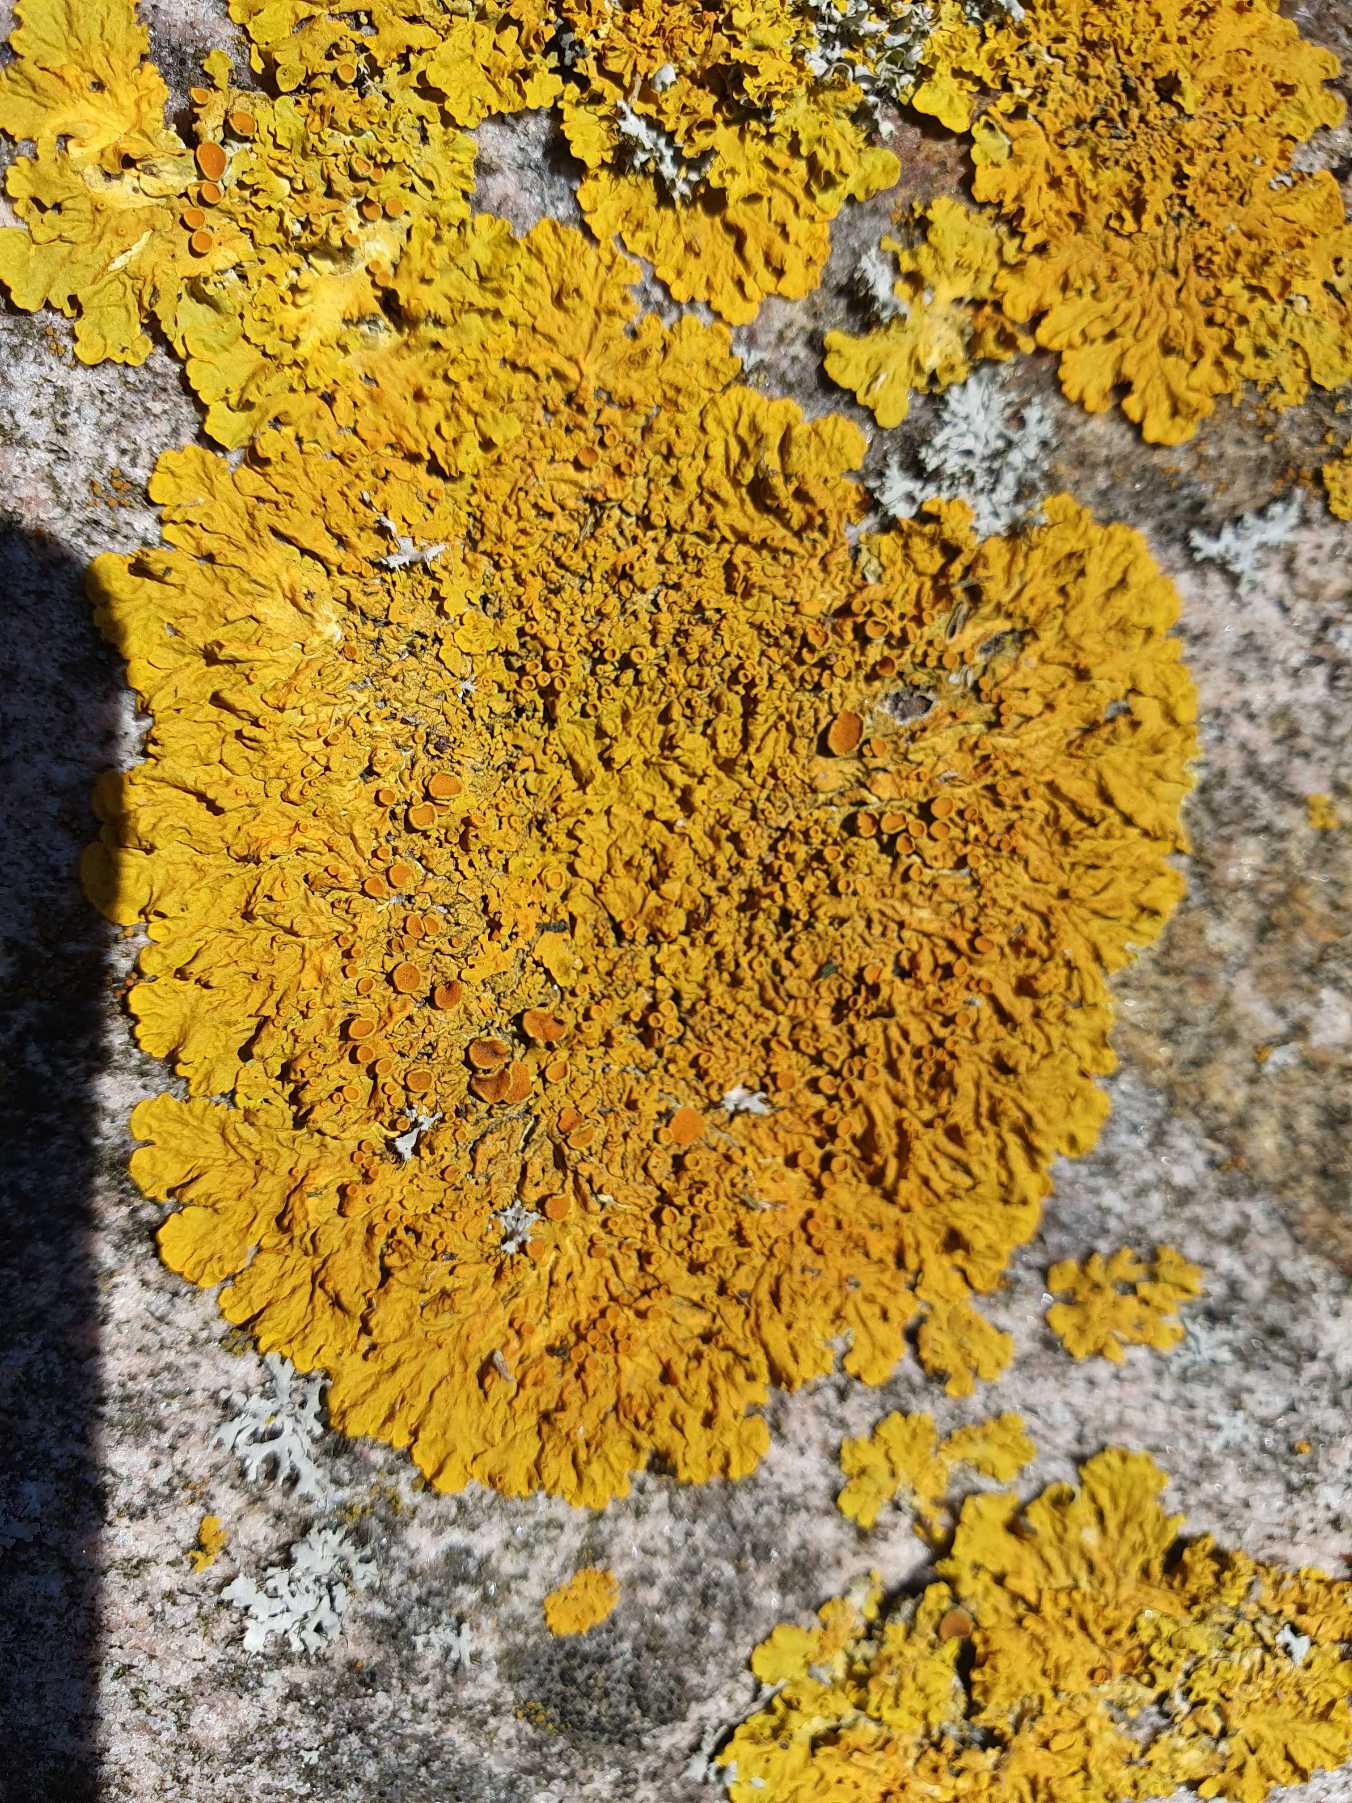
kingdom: Fungi
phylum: Ascomycota
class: Lecanoromycetes
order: Teloschistales
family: Teloschistaceae
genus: Xanthoria
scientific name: Xanthoria parietina
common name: Almindelig væggelav
